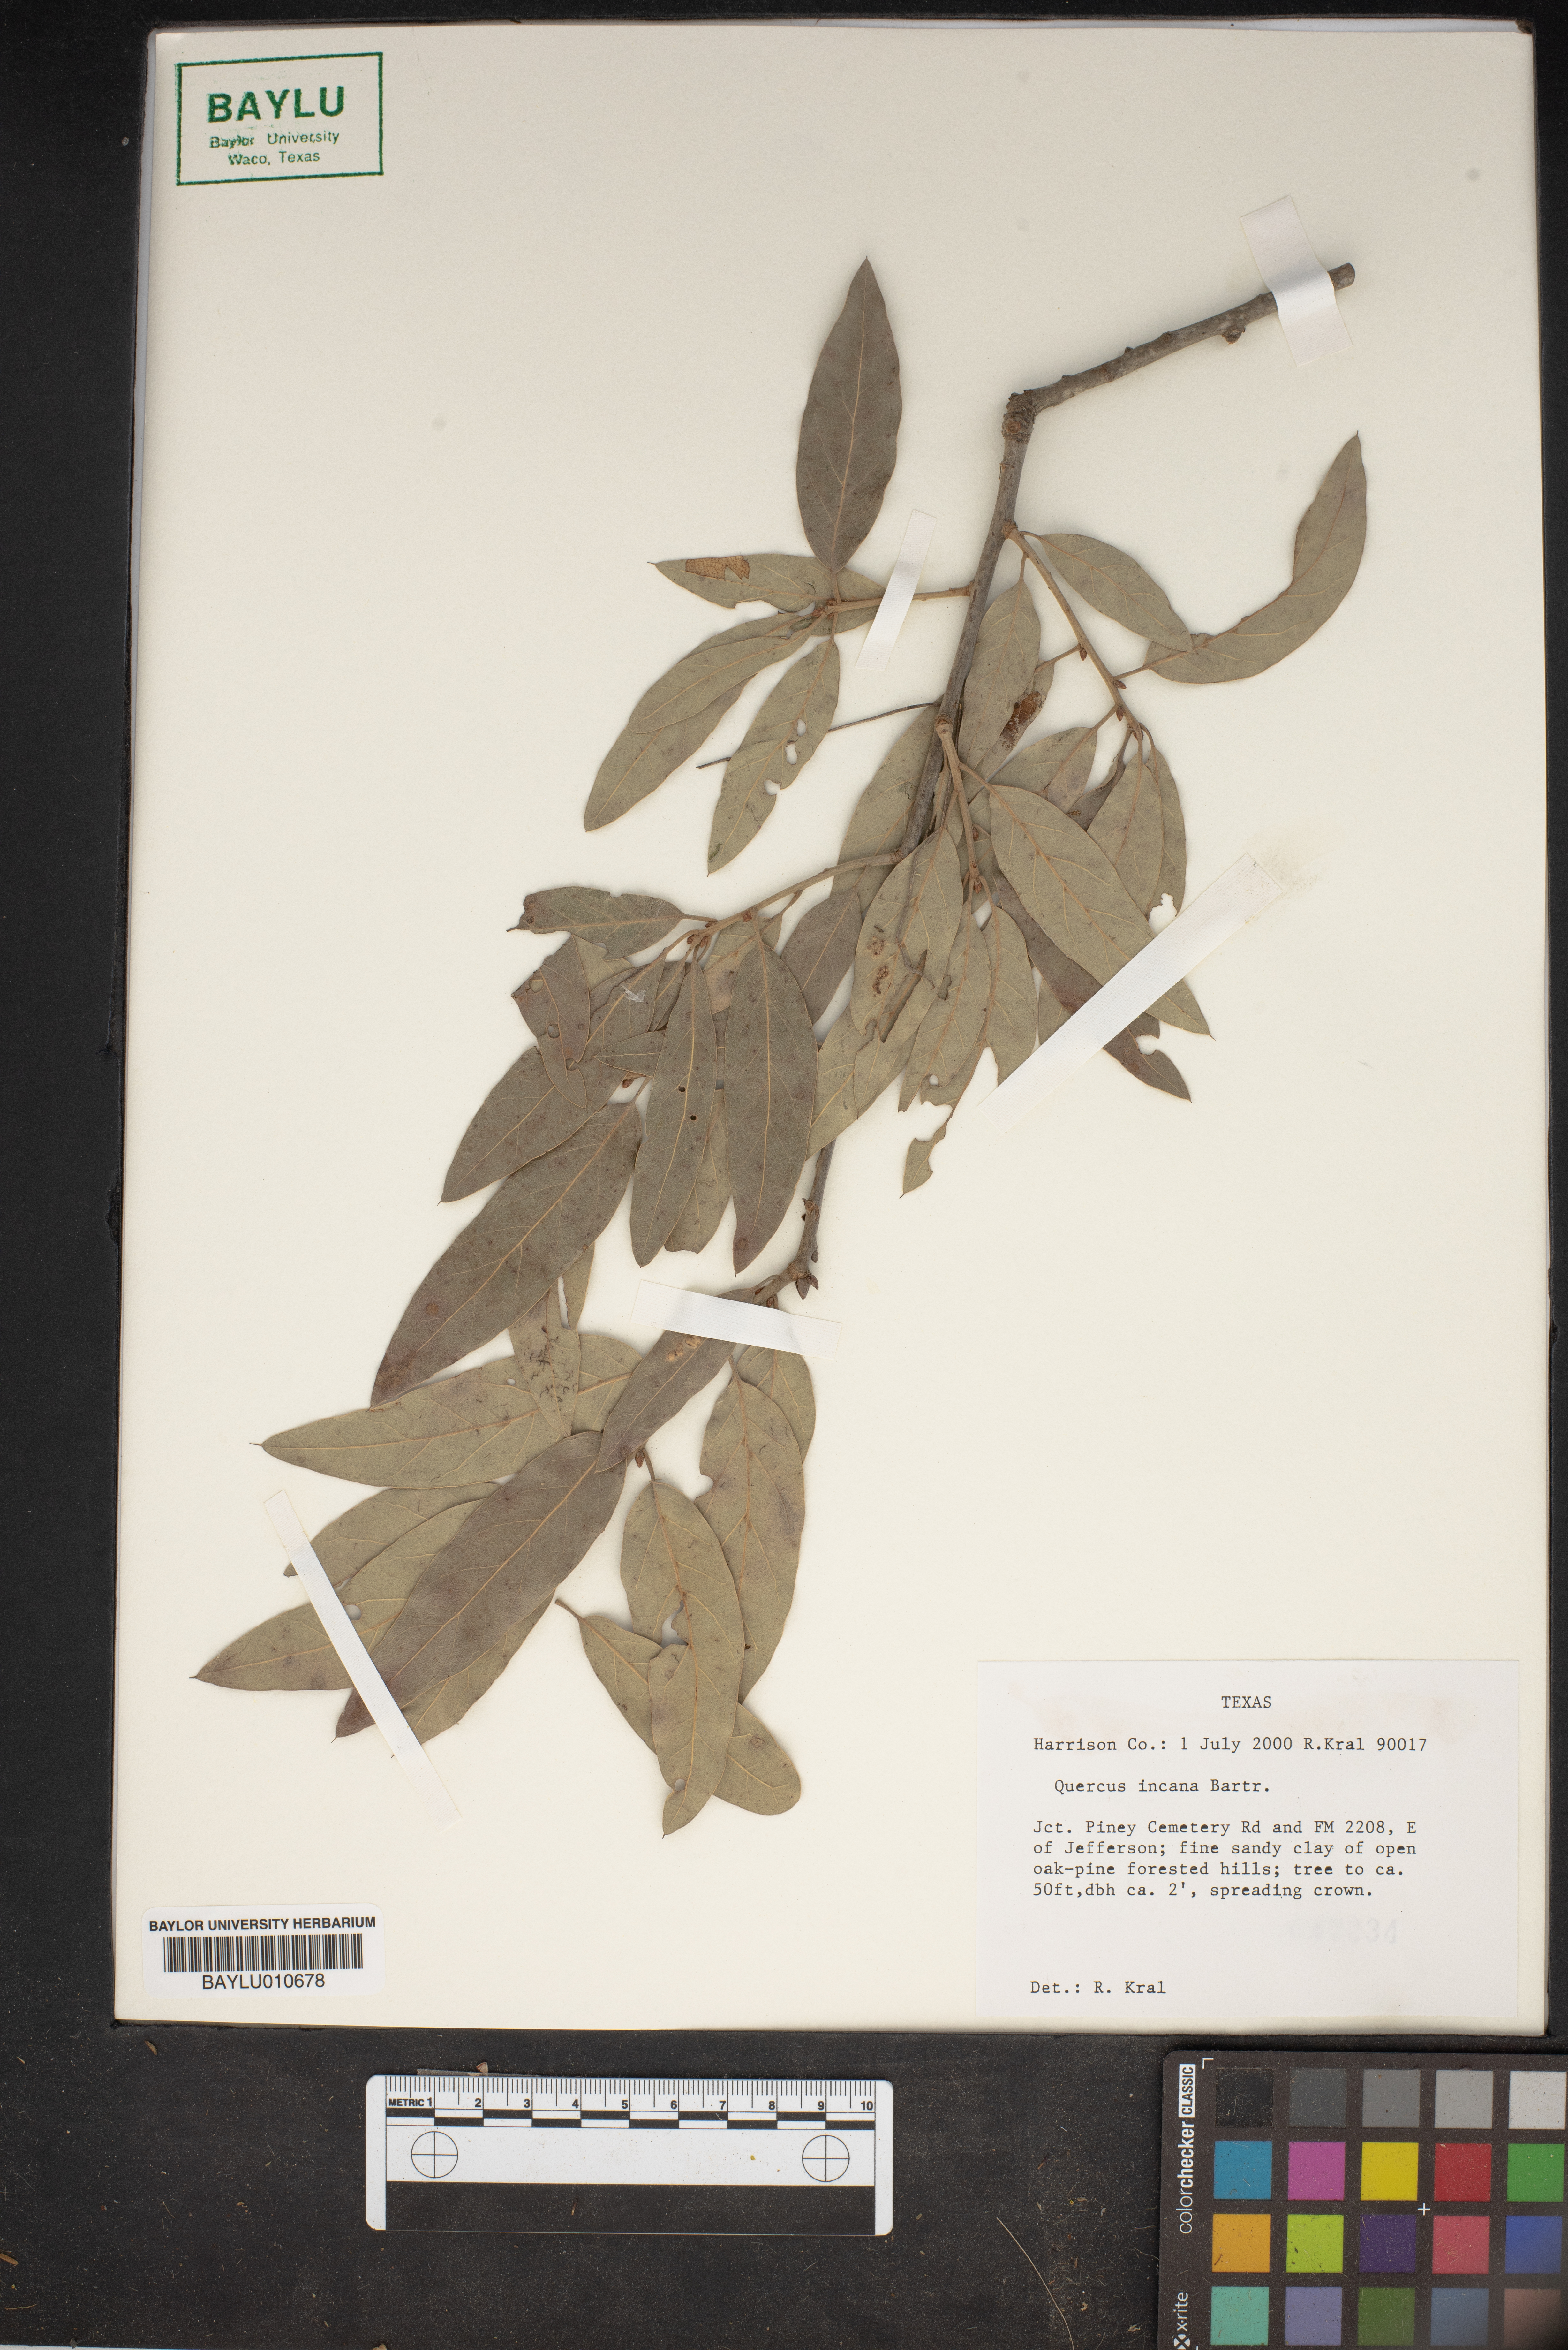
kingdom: Plantae
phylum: Tracheophyta
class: Magnoliopsida
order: Fagales
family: Fagaceae
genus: Quercus
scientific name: Quercus incana
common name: Bluejack oak
